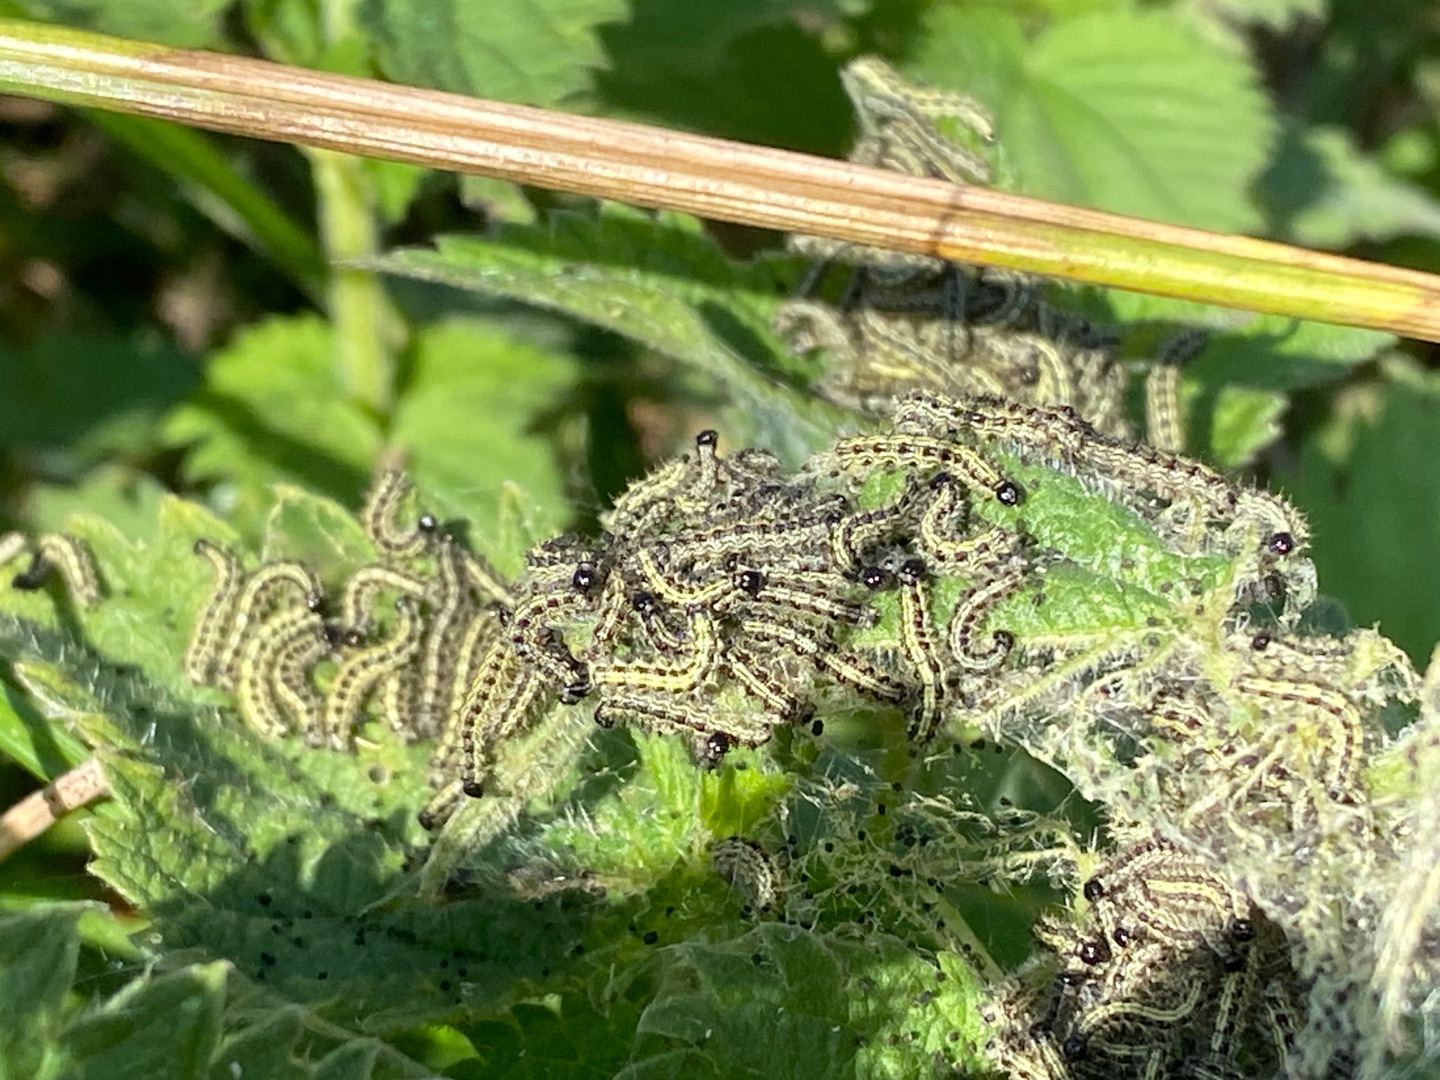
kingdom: Animalia
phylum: Arthropoda
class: Insecta
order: Lepidoptera
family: Nymphalidae
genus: Aglais
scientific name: Aglais urticae
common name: Nældens takvinge
